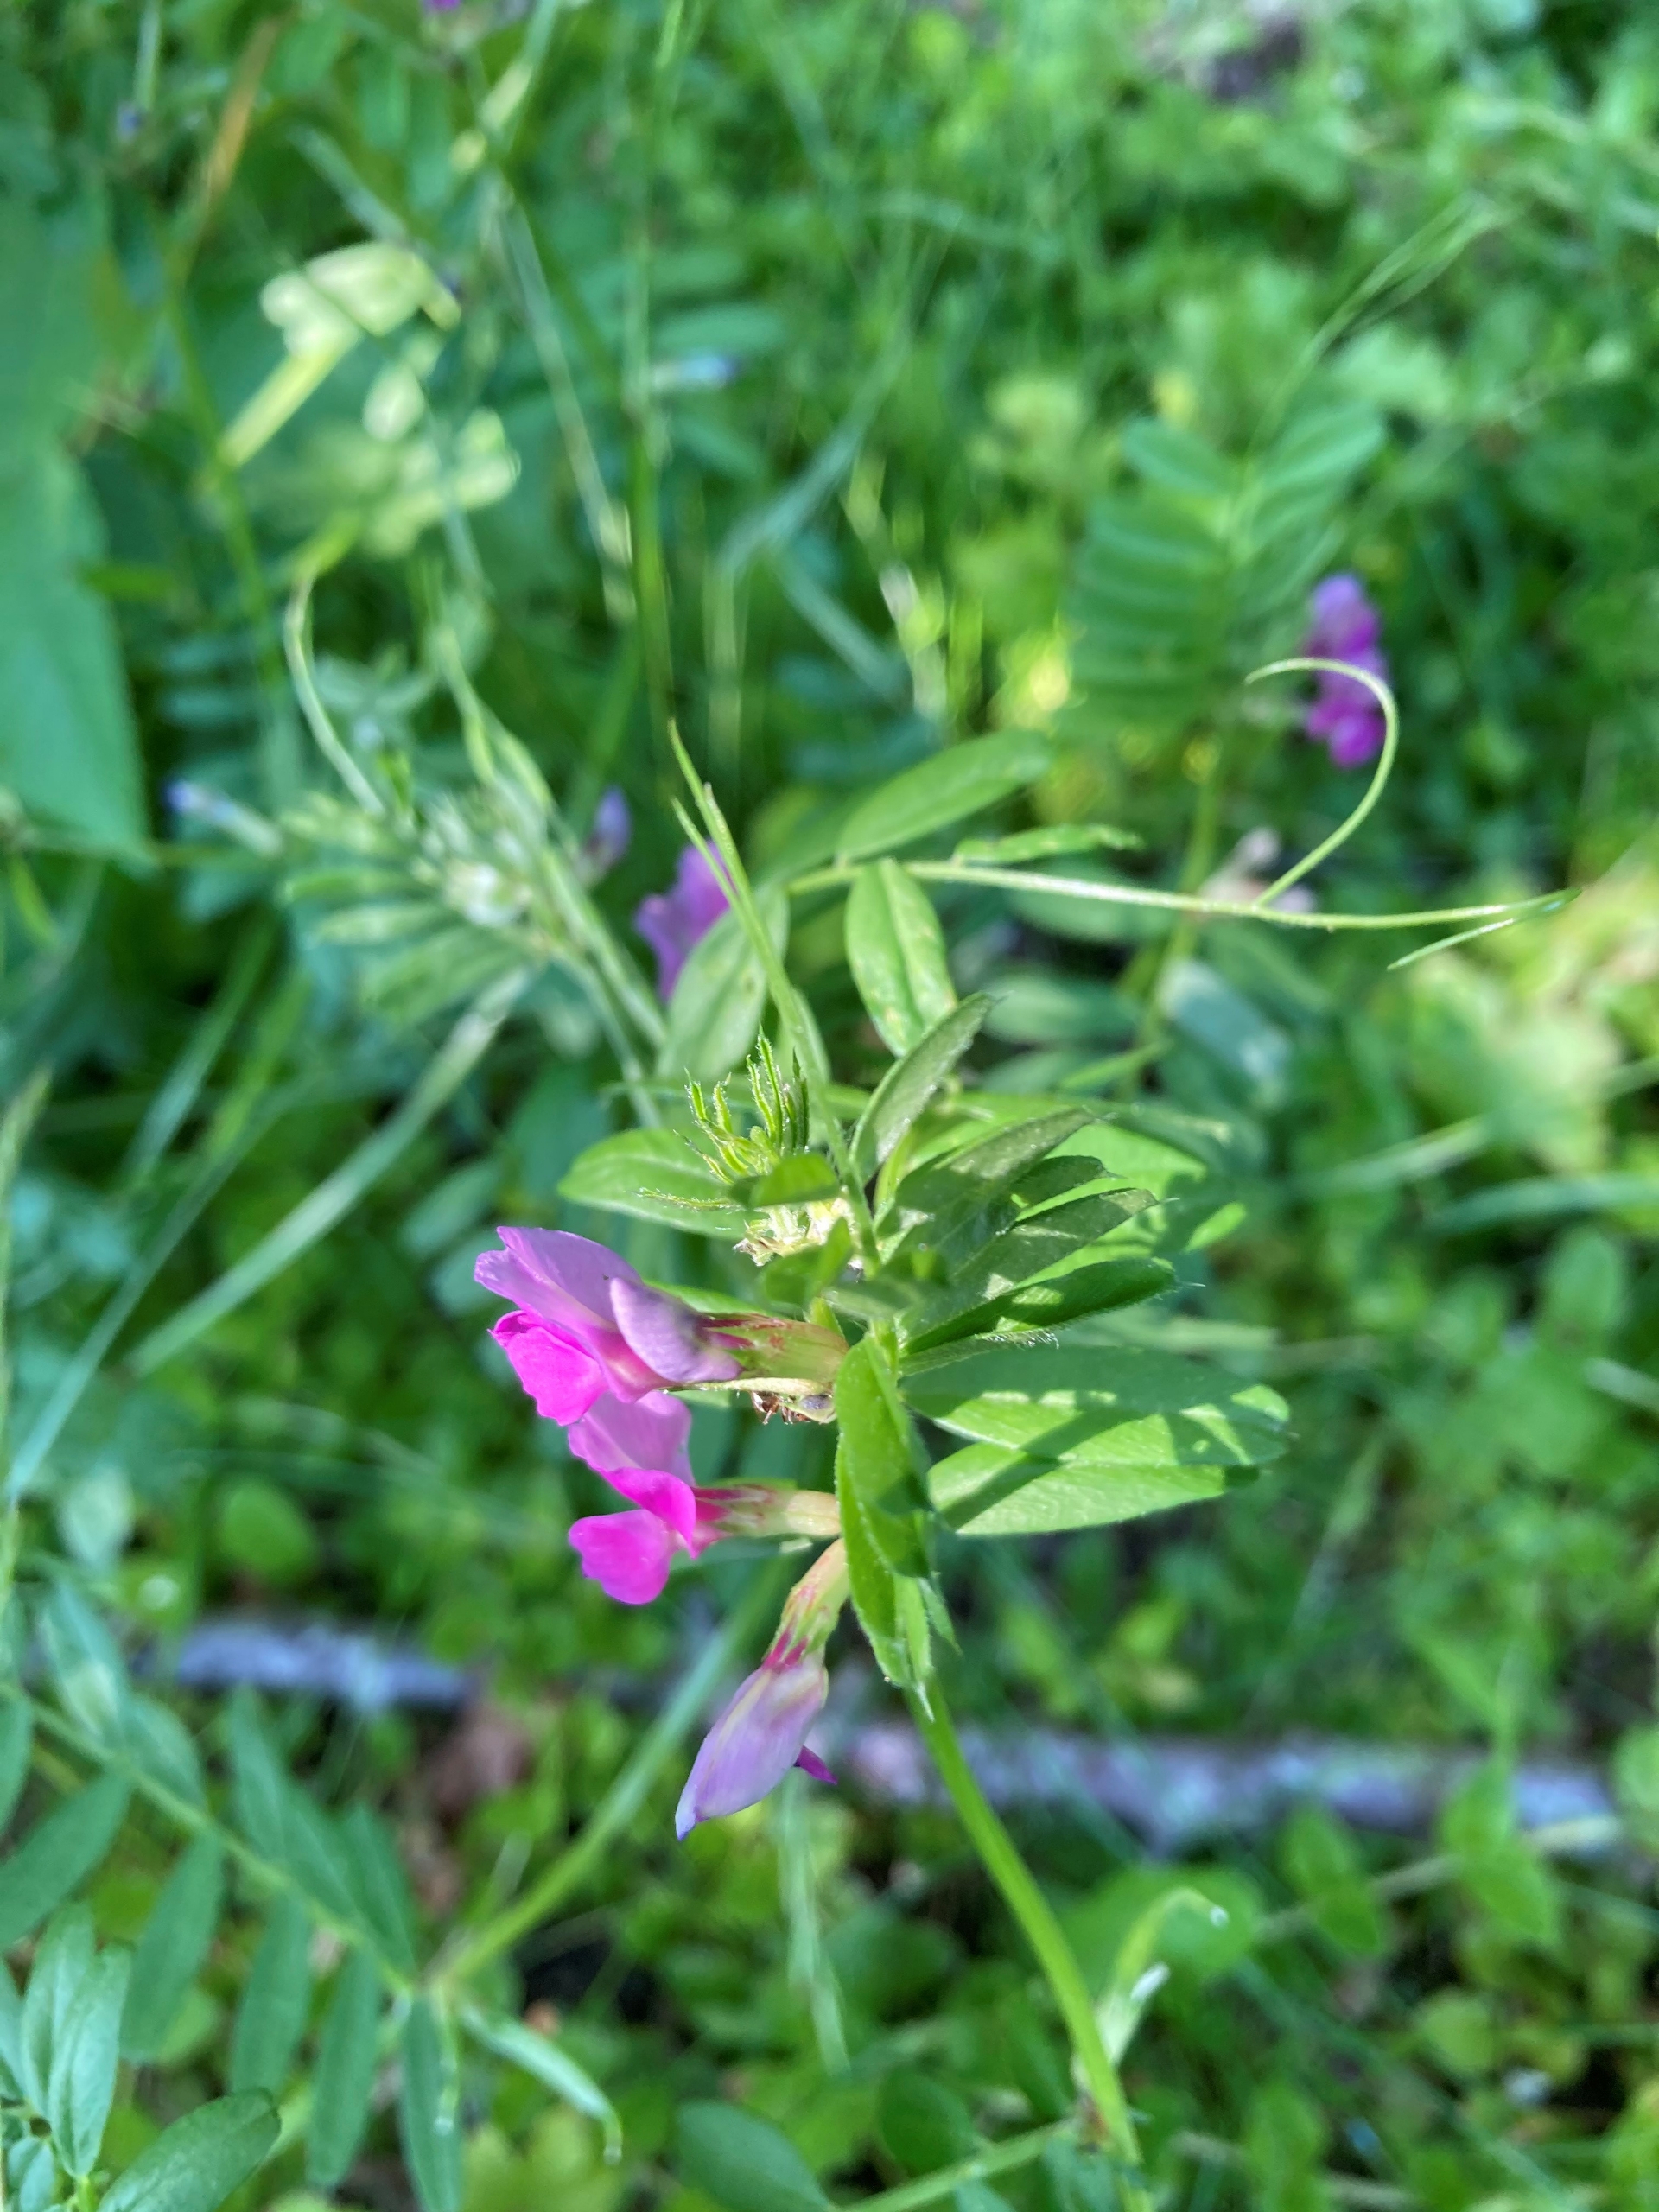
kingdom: Plantae
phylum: Tracheophyta
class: Magnoliopsida
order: Fabales
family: Fabaceae
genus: Vicia
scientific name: Vicia sativa
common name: Foder-vikke
